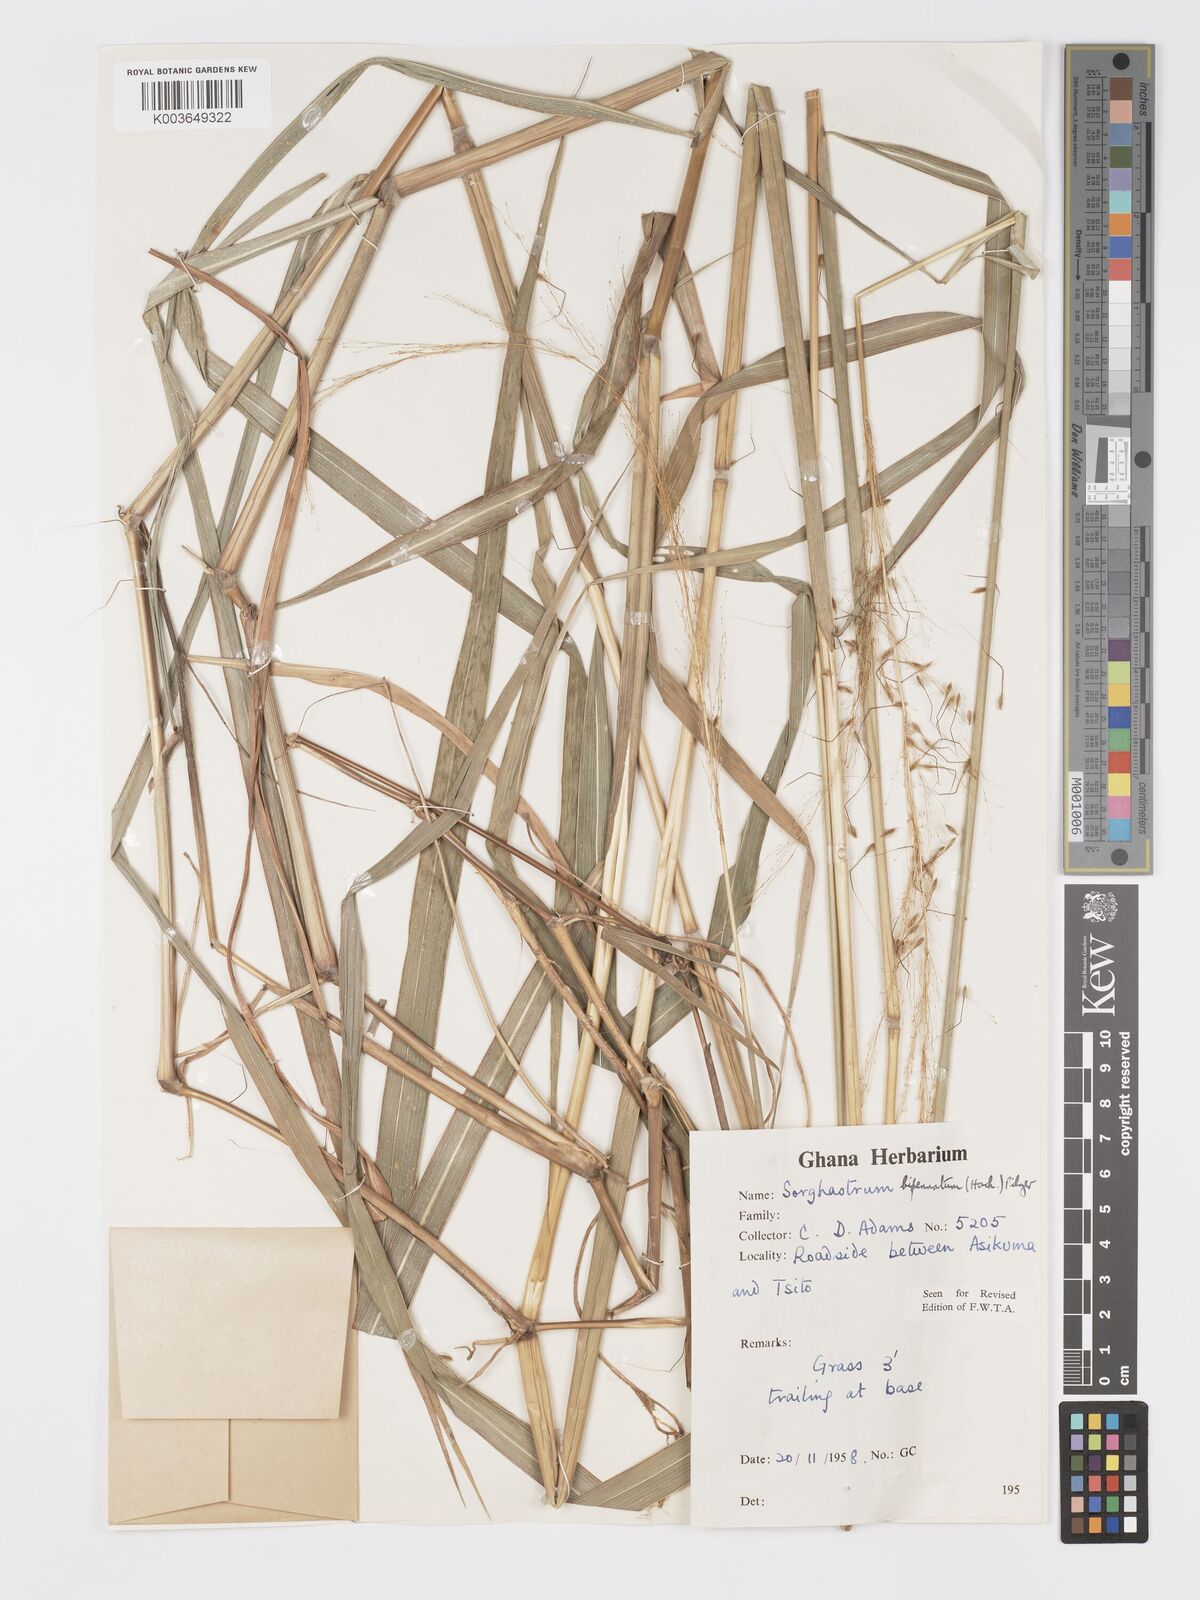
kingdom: Plantae
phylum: Tracheophyta
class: Liliopsida
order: Poales
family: Poaceae
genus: Sorghastrum
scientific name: Sorghastrum incompletum
